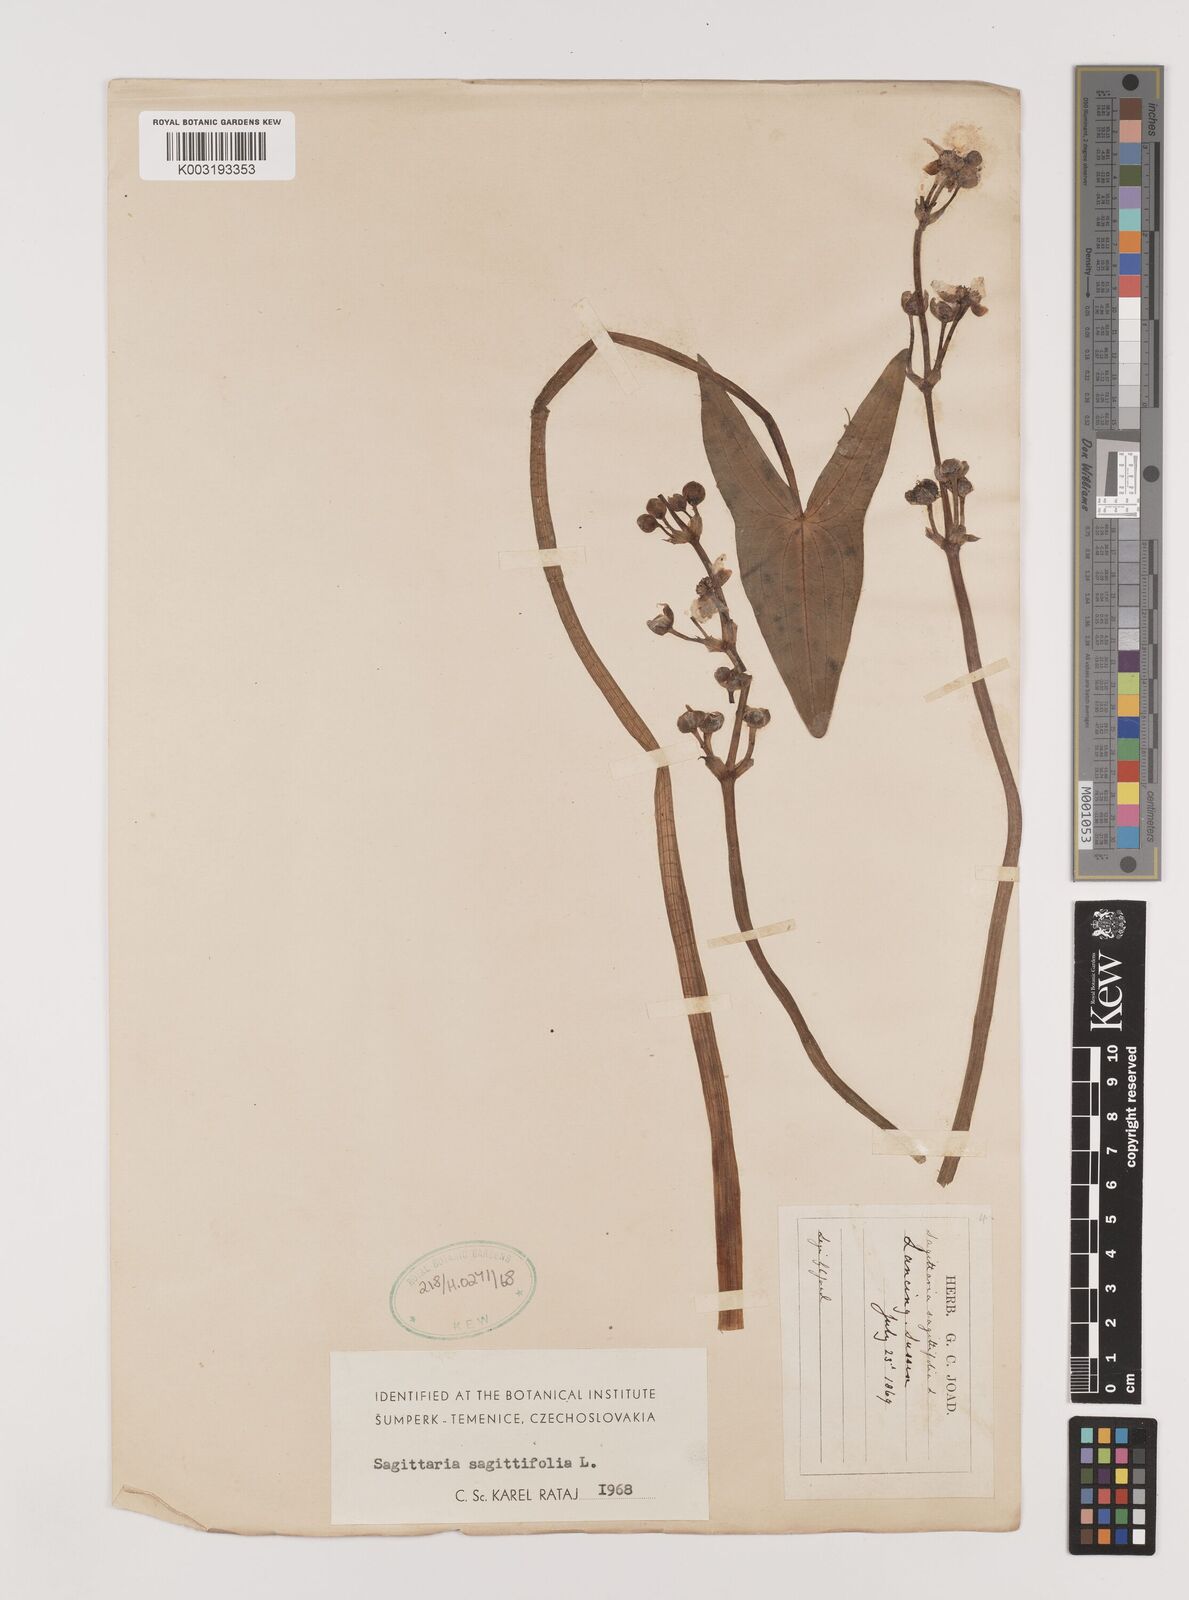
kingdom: Plantae
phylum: Tracheophyta
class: Liliopsida
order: Alismatales
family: Alismataceae
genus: Sagittaria
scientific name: Sagittaria sagittifolia
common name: Arrowhead
